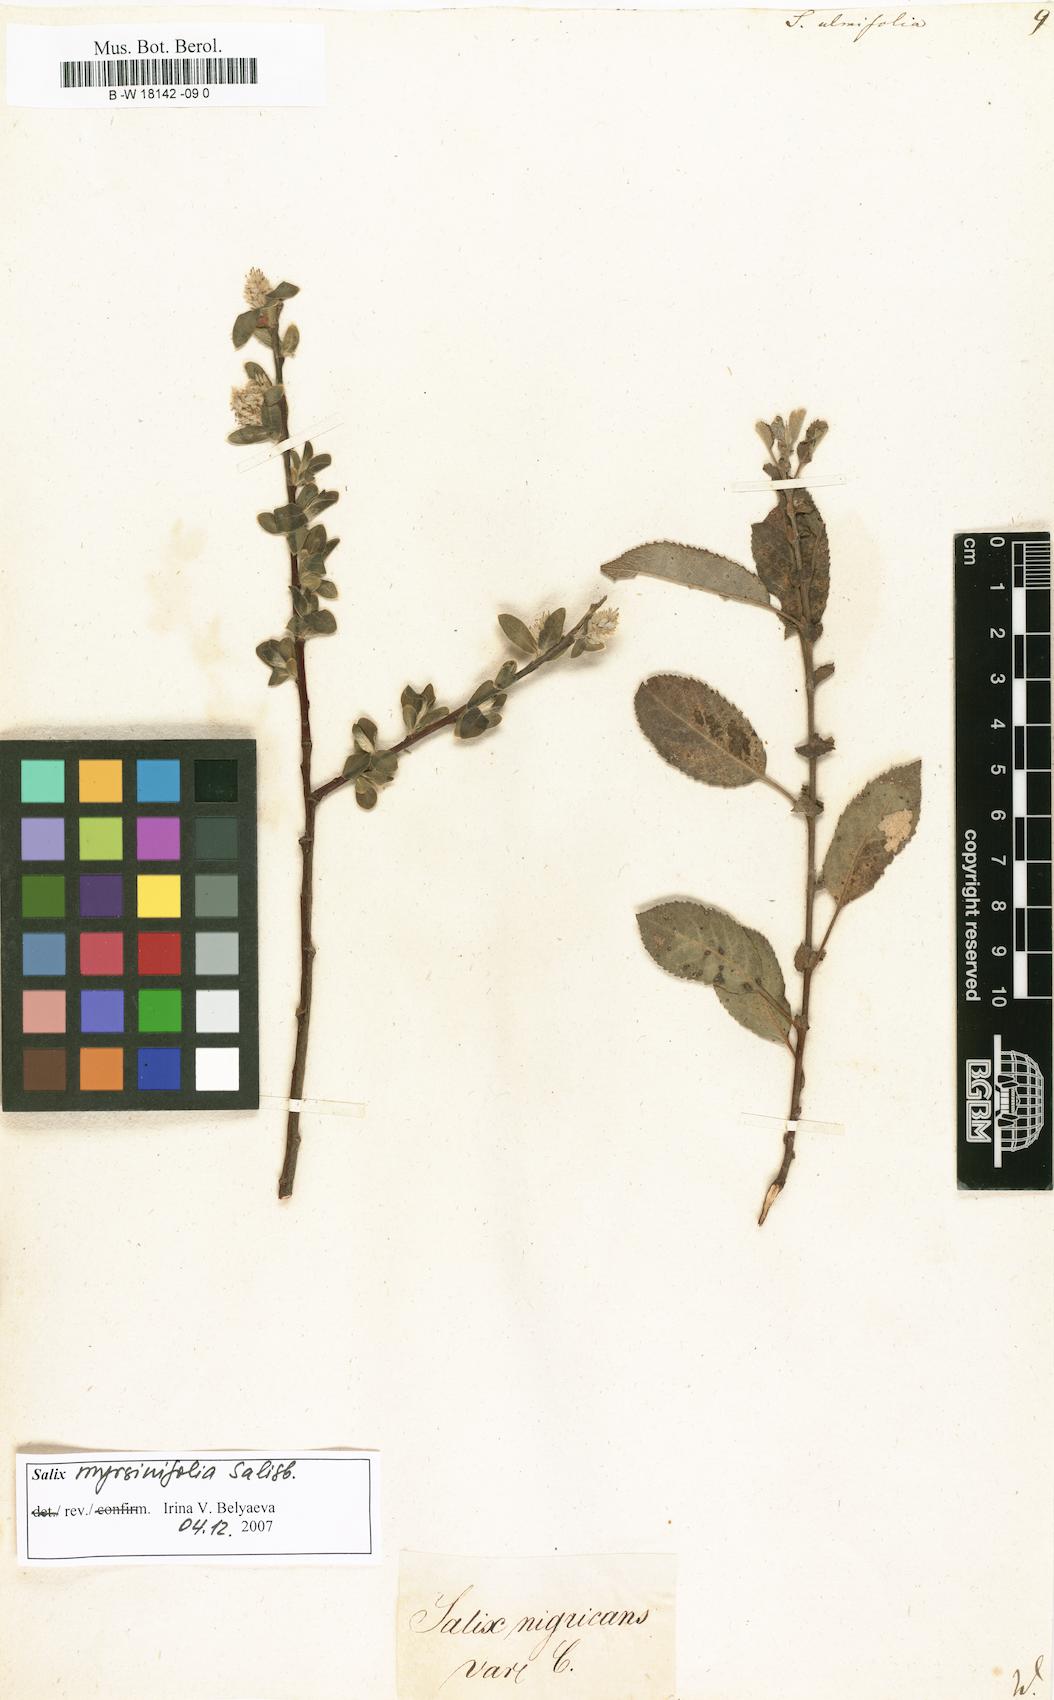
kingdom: Plantae
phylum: Tracheophyta
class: Magnoliopsida
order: Malpighiales
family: Salicaceae
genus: Salix
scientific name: Salix ulmifolia
